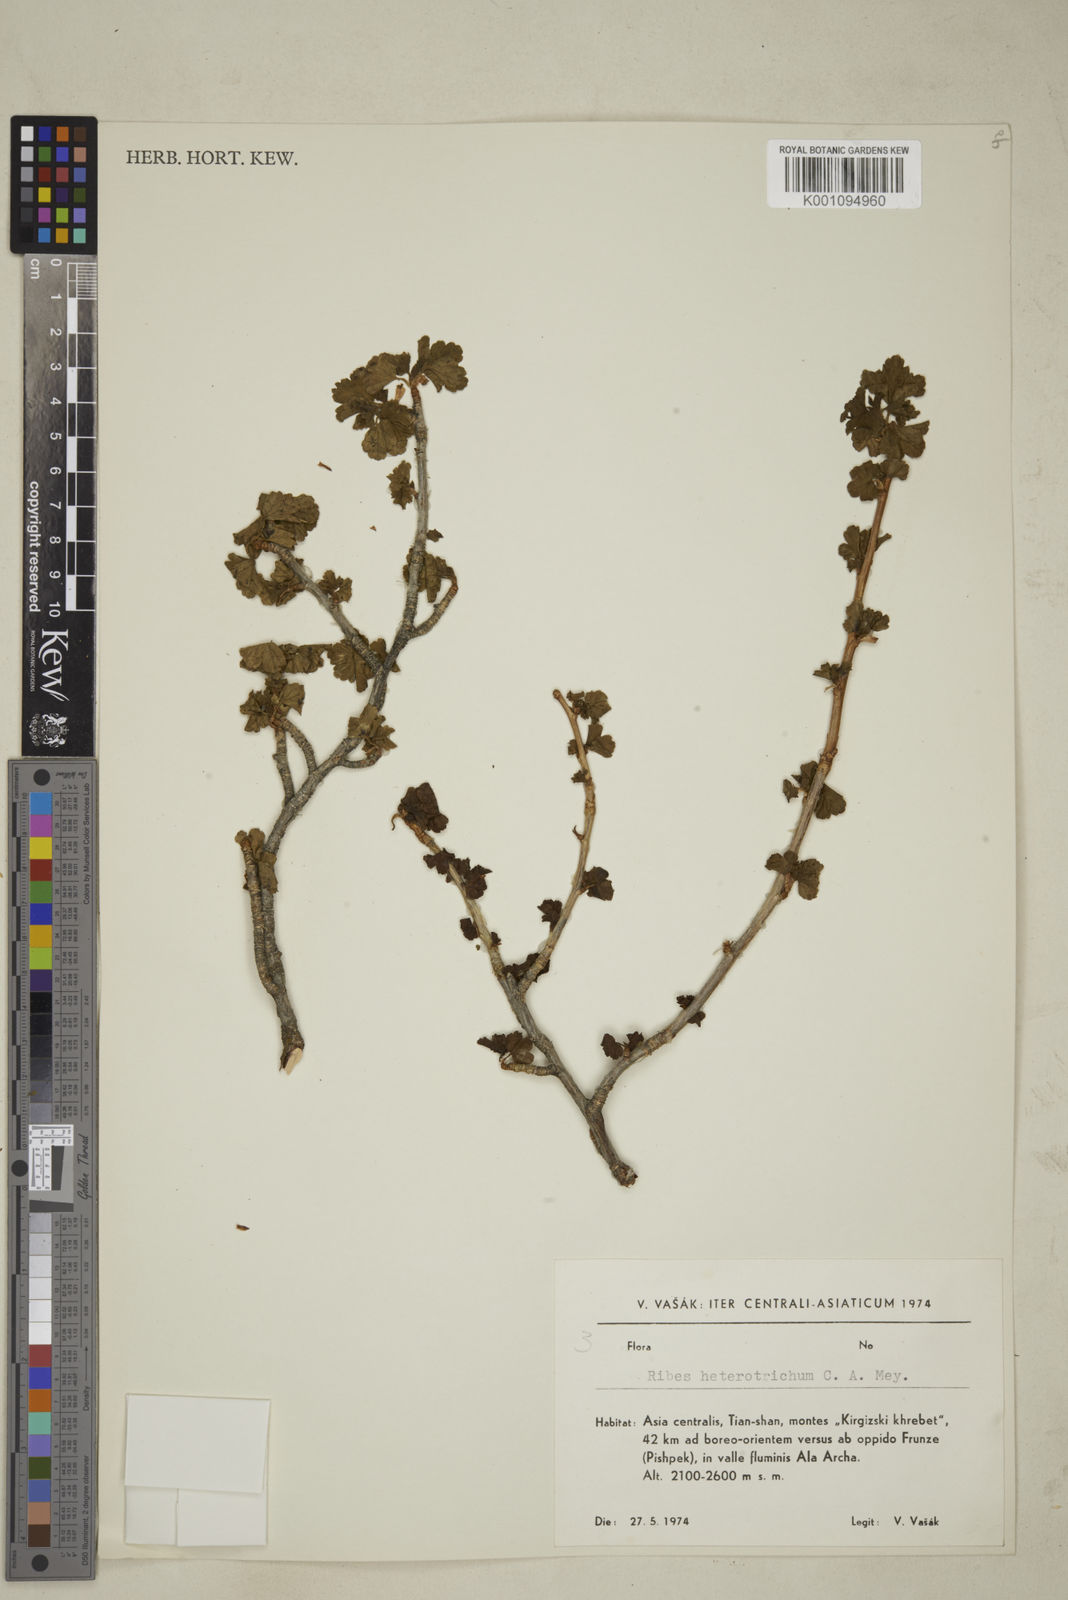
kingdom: Plantae
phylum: Tracheophyta
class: Magnoliopsida
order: Saxifragales
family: Grossulariaceae
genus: Ribes
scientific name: Ribes heterotrichum
